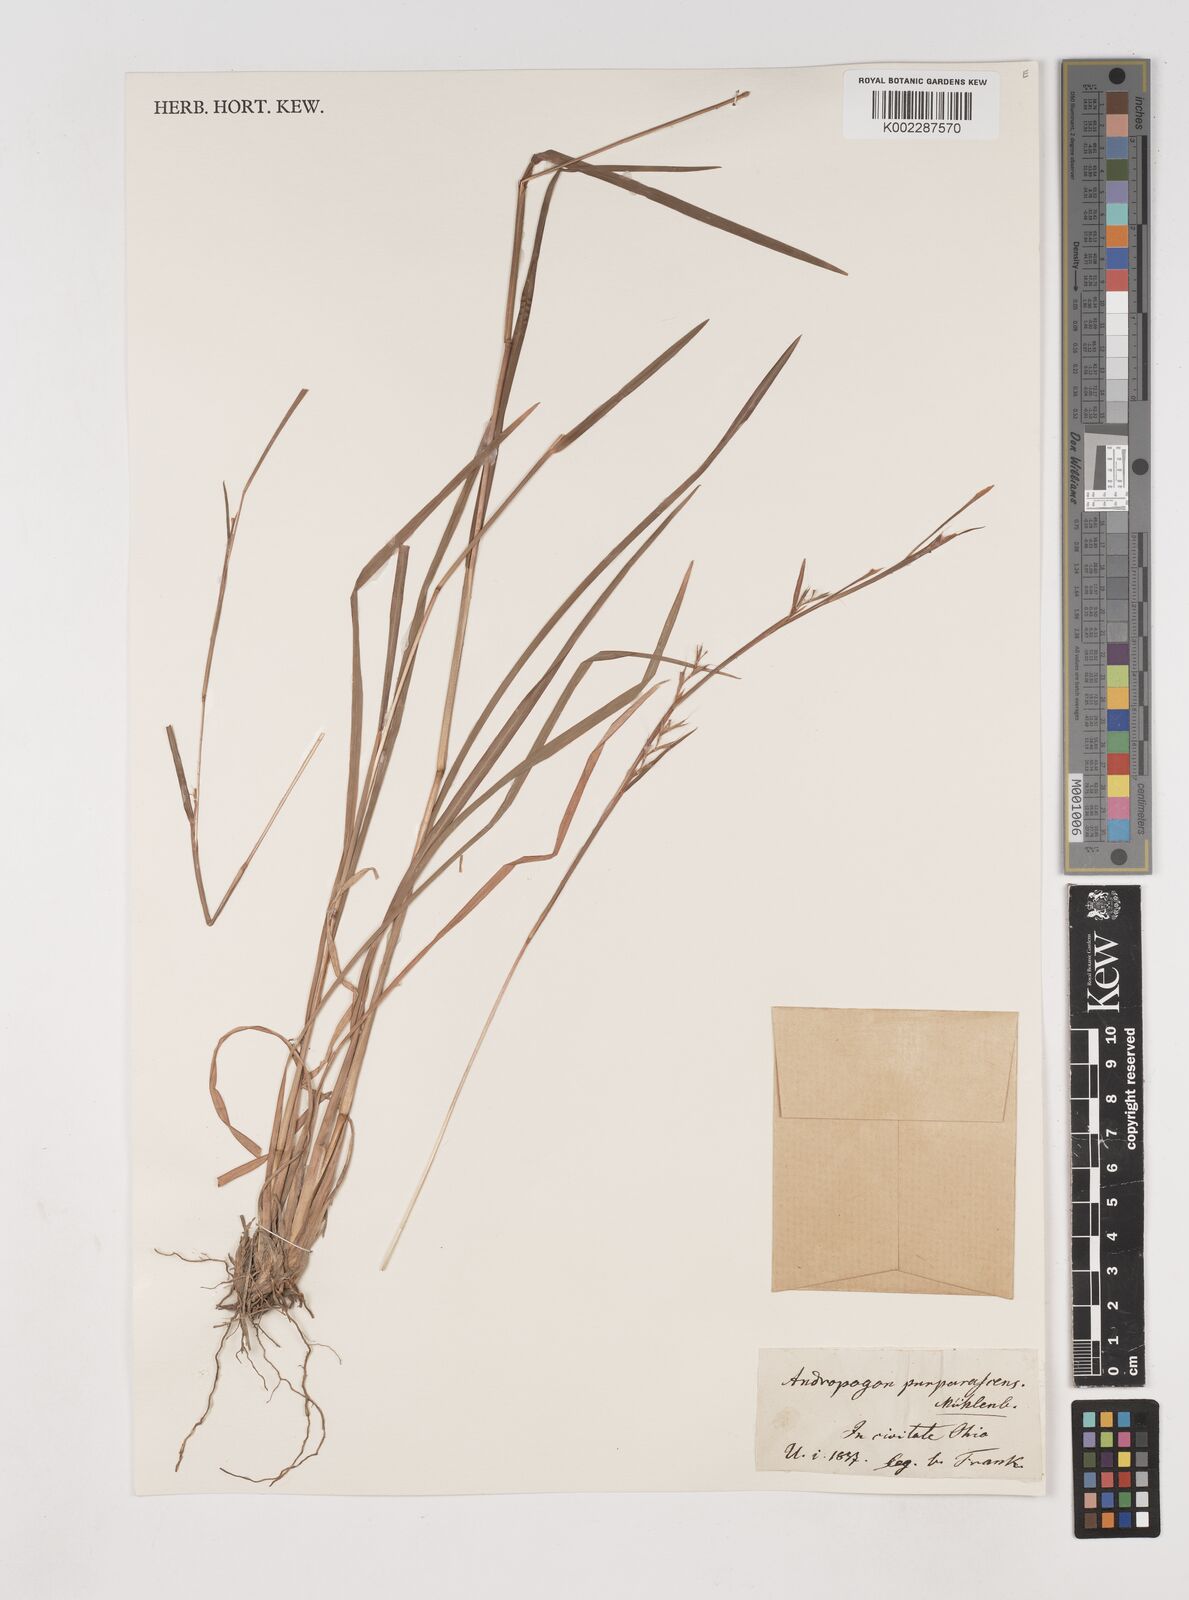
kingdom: Plantae
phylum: Tracheophyta
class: Liliopsida
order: Poales
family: Poaceae
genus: Schizachyrium
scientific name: Schizachyrium scoparium
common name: Little bluestem
